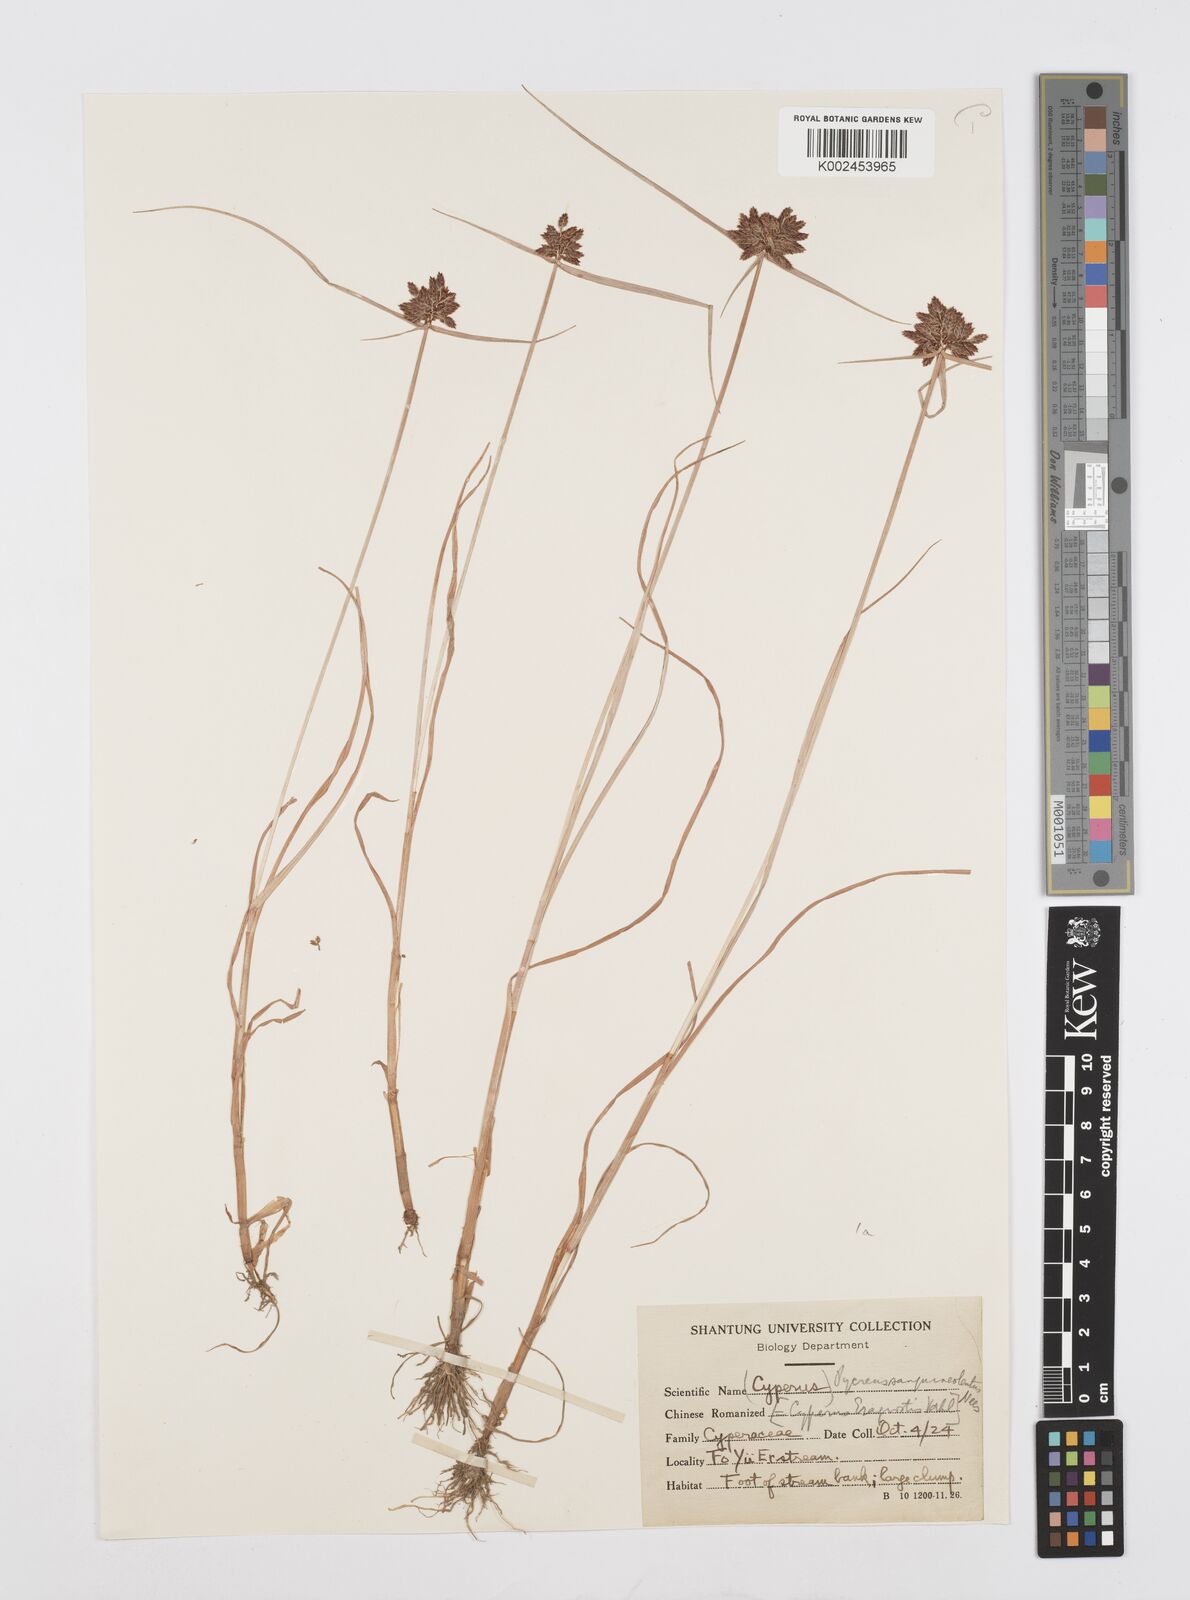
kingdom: Plantae
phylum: Tracheophyta
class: Liliopsida
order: Poales
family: Cyperaceae
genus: Cyperus
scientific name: Cyperus sanguinolentus
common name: Purpleglume flatsedge
